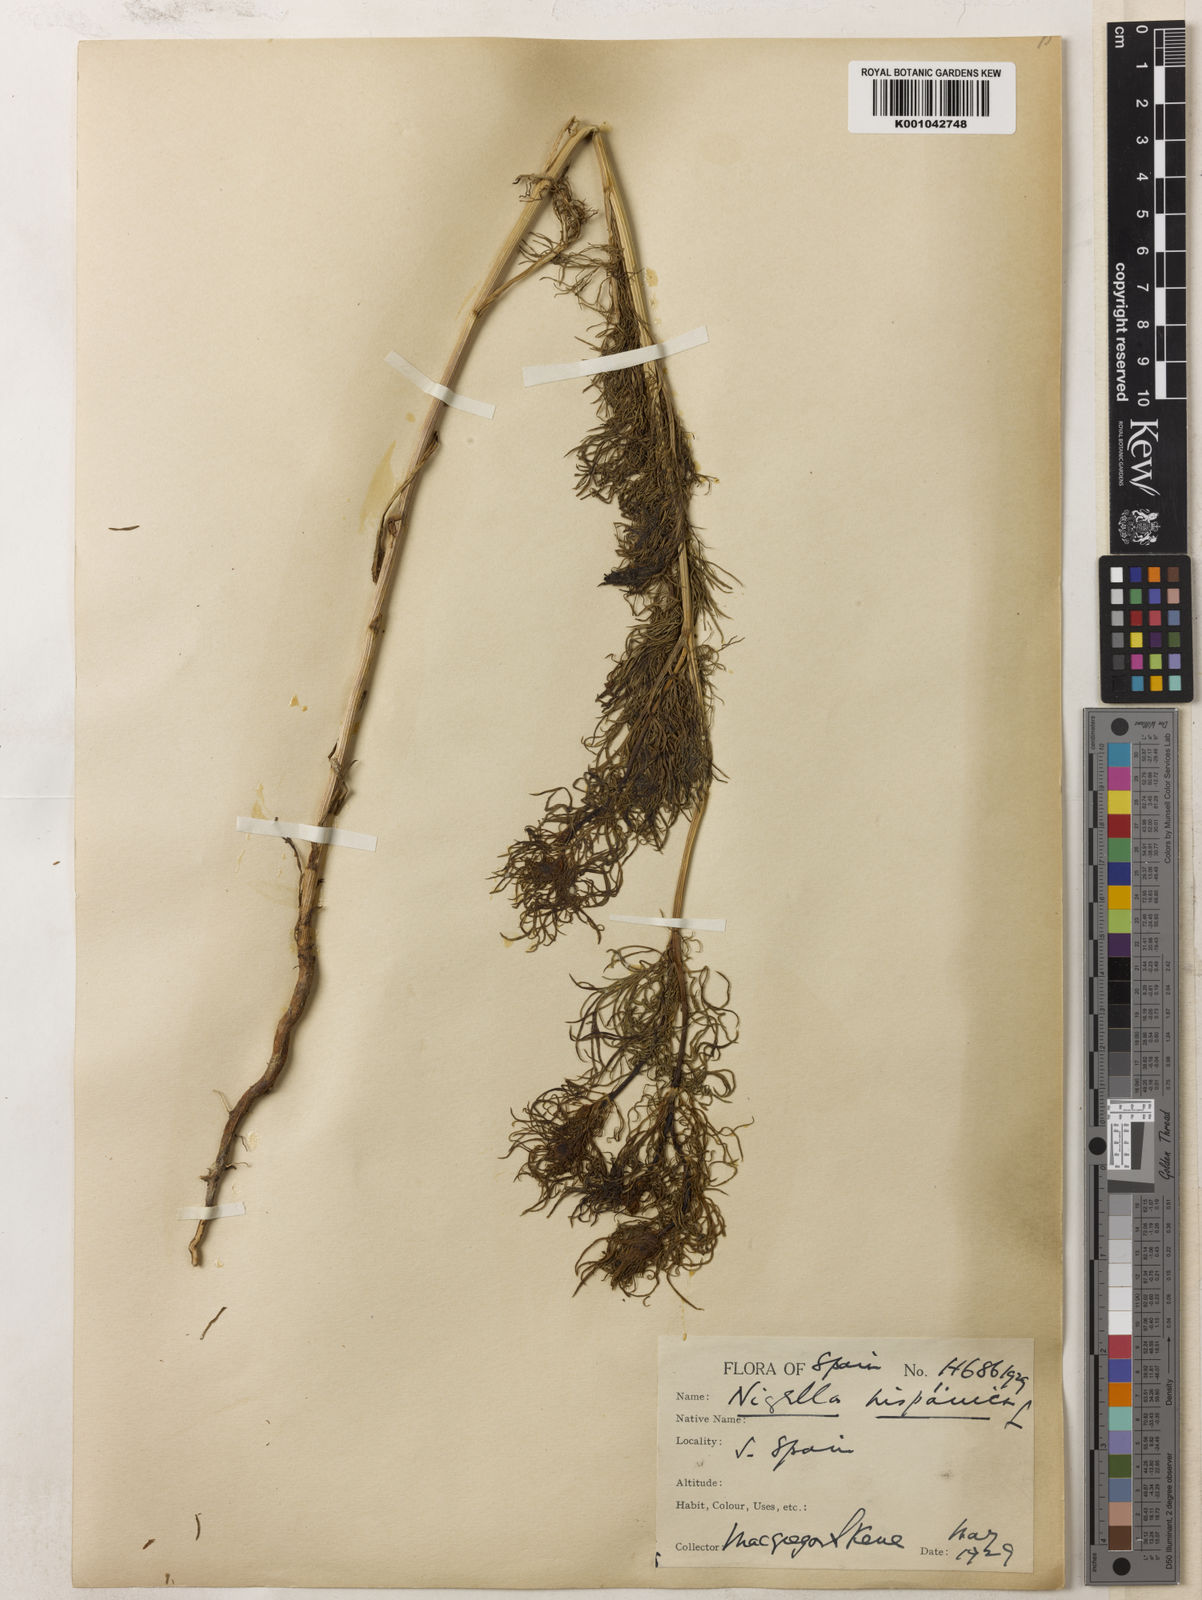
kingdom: Plantae
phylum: Tracheophyta
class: Magnoliopsida
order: Ranunculales
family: Ranunculaceae
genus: Nigella
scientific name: Nigella hispanica
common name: Fennel-flower
